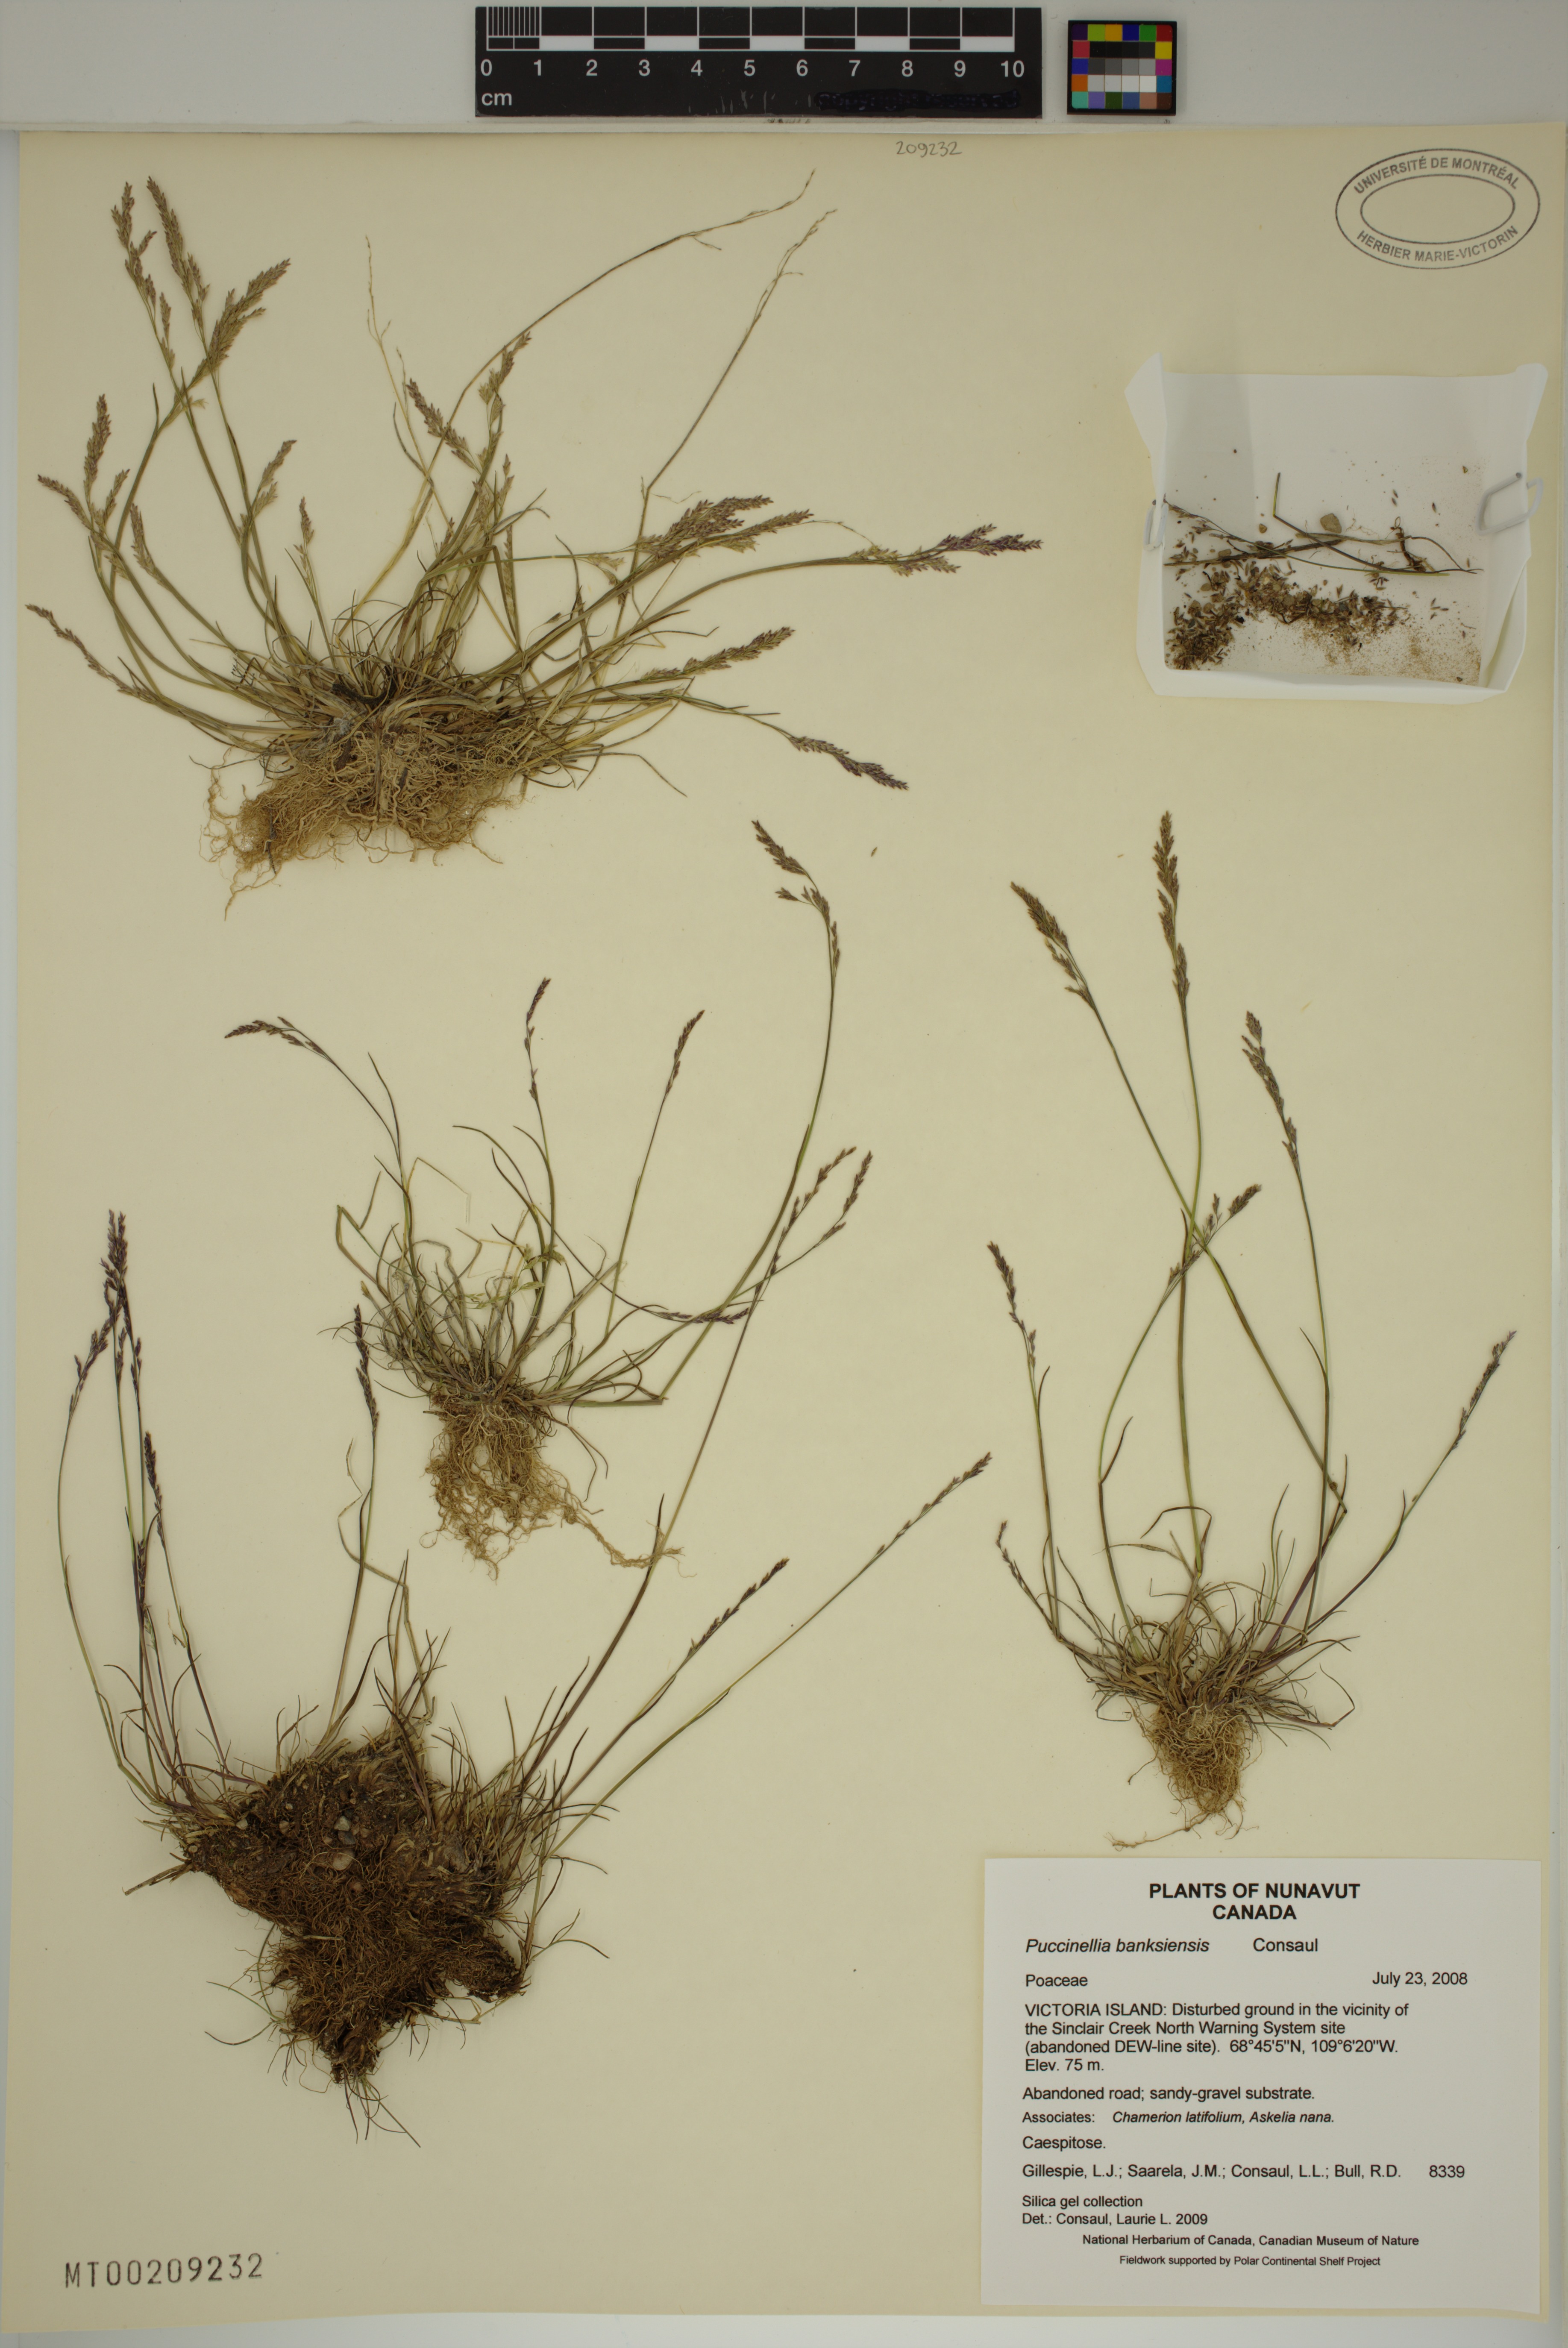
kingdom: Plantae
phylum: Tracheophyta
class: Liliopsida
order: Poales
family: Poaceae
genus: Puccinellia
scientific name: Puccinellia banksiensis
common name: Banks island alkaligrass
